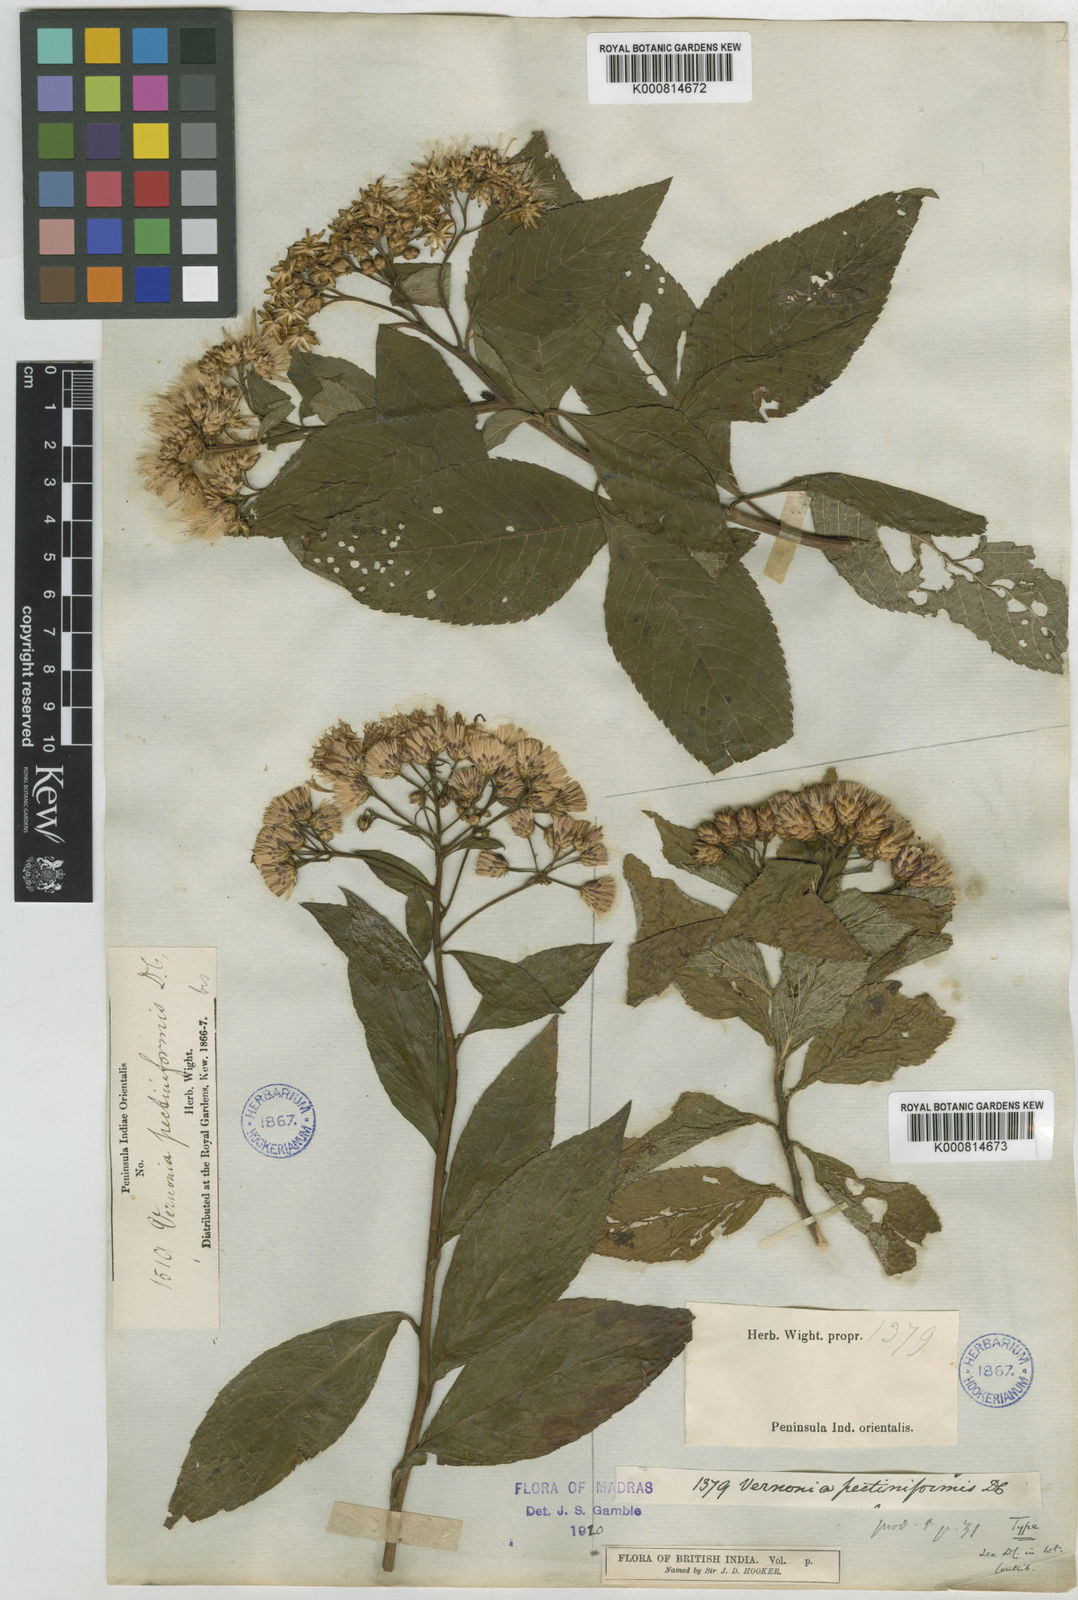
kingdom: Plantae
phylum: Tracheophyta
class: Magnoliopsida
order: Asterales
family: Asteraceae
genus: Gymnanthemum
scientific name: Gymnanthemum pectiniforme
